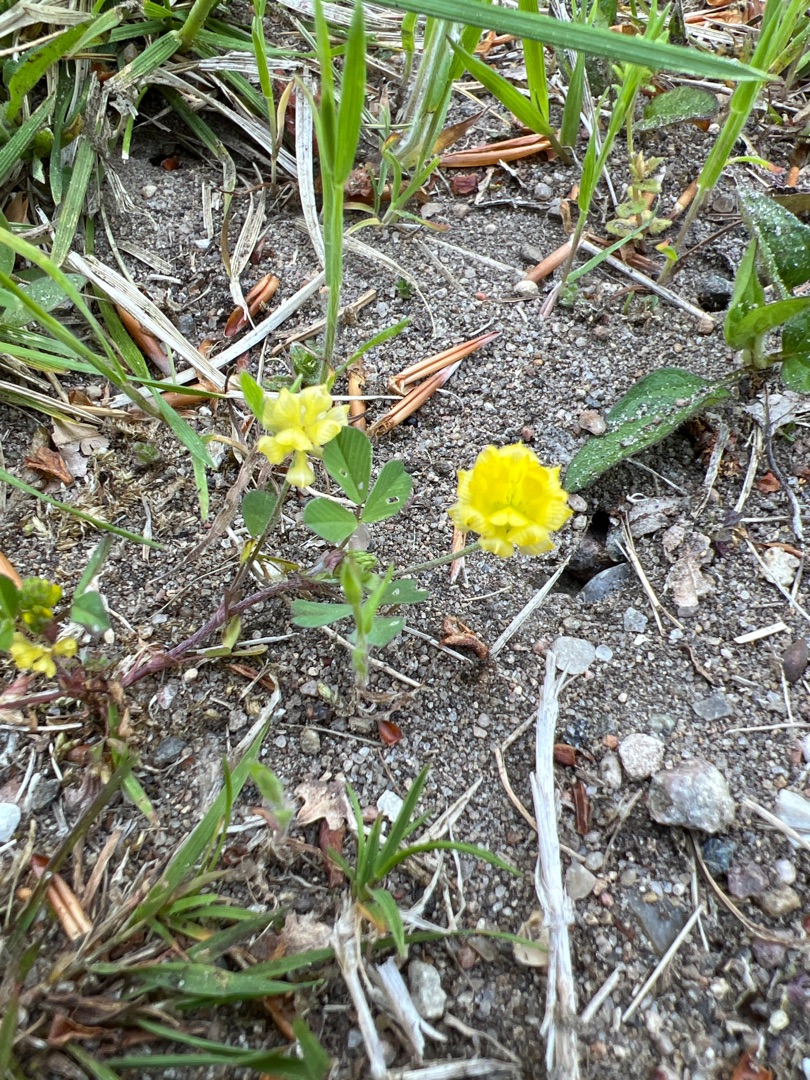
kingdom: Plantae
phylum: Tracheophyta
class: Magnoliopsida
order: Fabales
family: Fabaceae
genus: Trifolium
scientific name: Trifolium campestre
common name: Gul kløver
